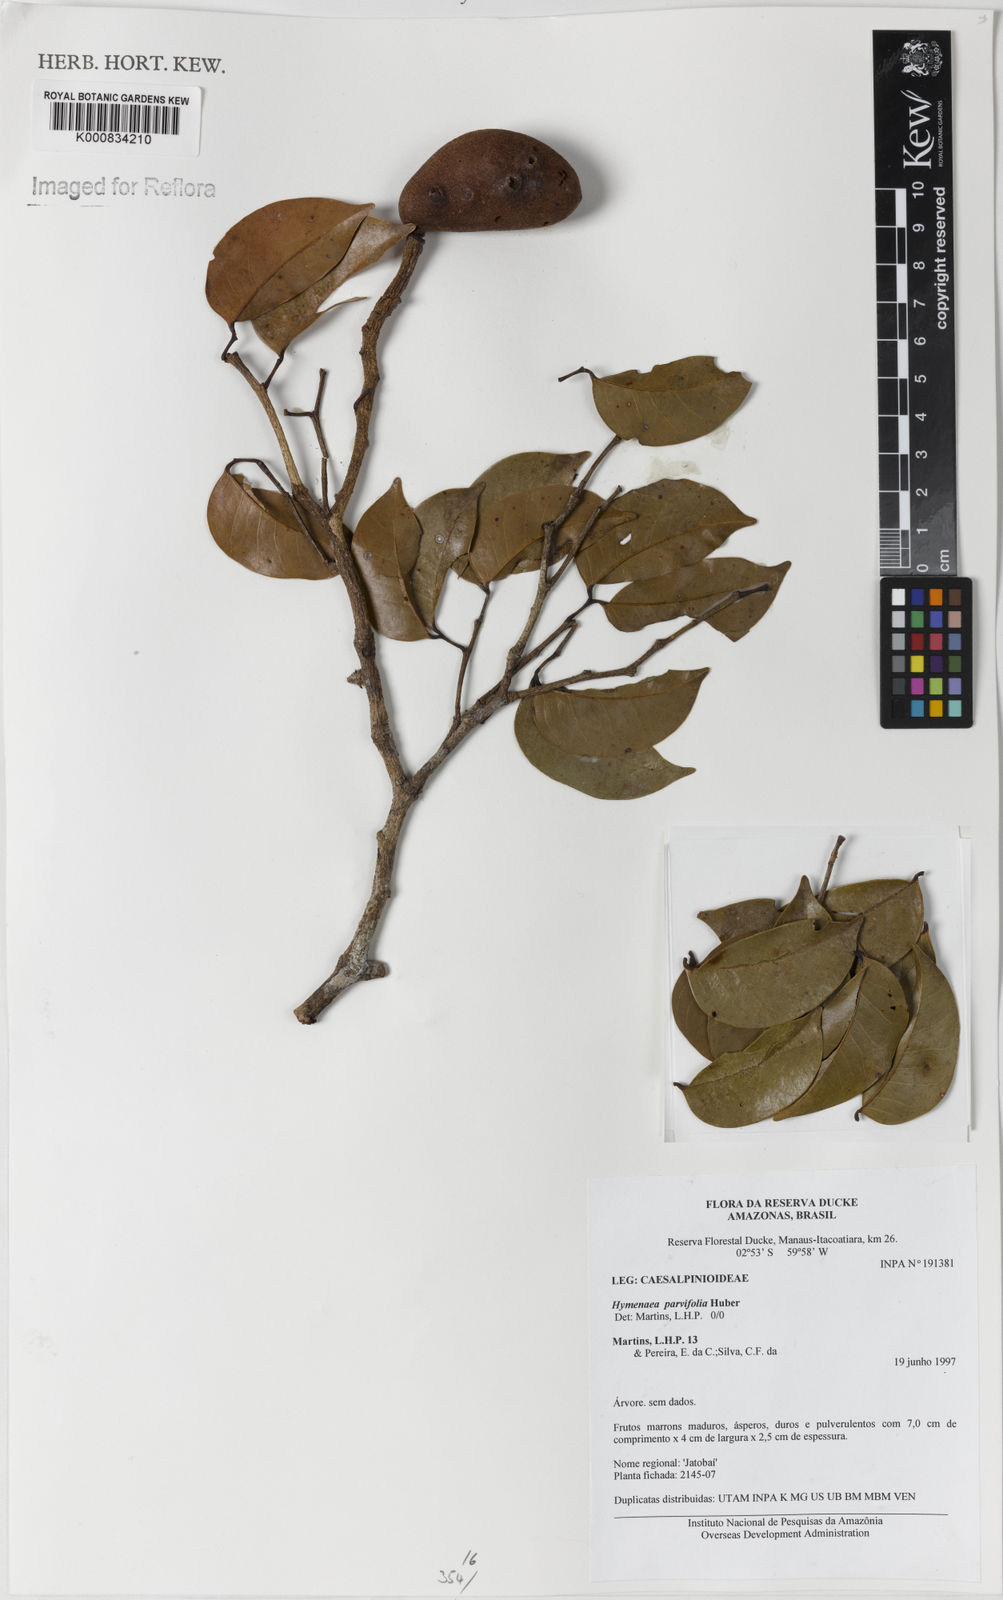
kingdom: Plantae
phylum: Tracheophyta
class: Magnoliopsida
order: Fabales
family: Fabaceae
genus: Hymenaea
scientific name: Hymenaea parvifolia
